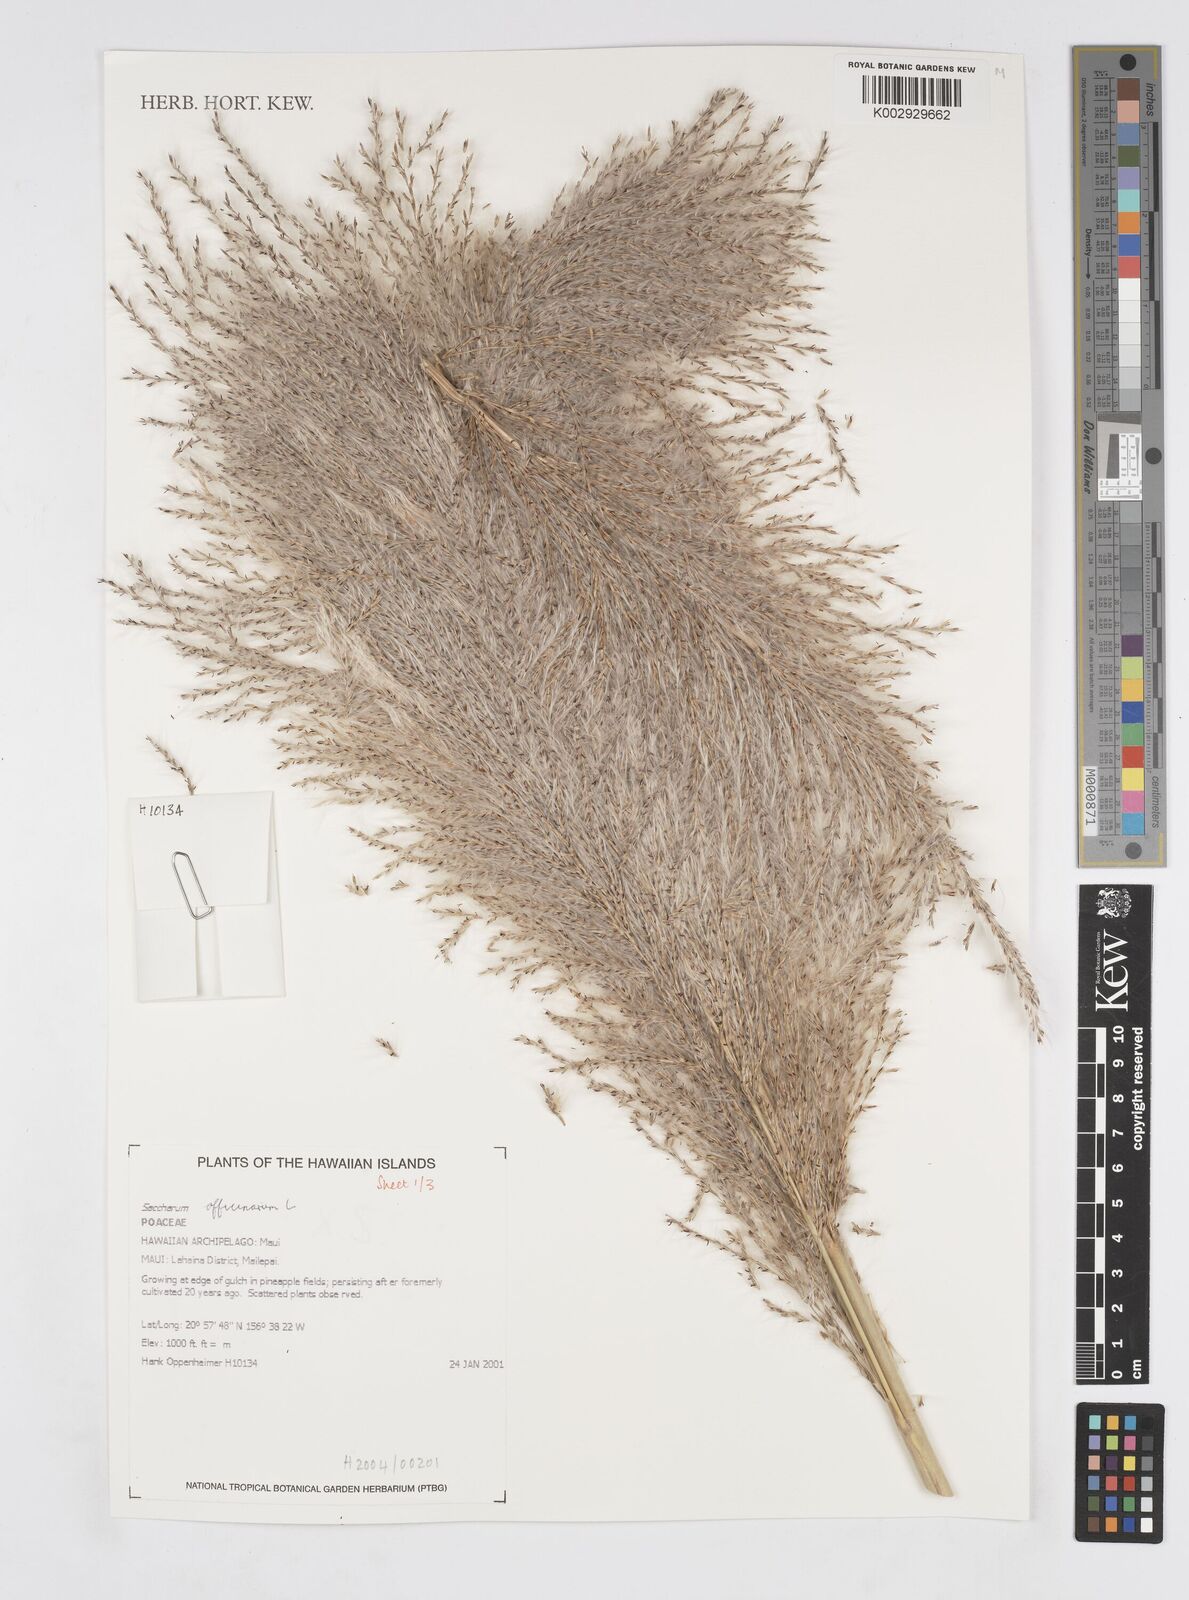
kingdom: Plantae
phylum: Tracheophyta
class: Liliopsida
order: Poales
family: Poaceae
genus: Saccharum
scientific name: Saccharum officinarum
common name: Sugarcane
